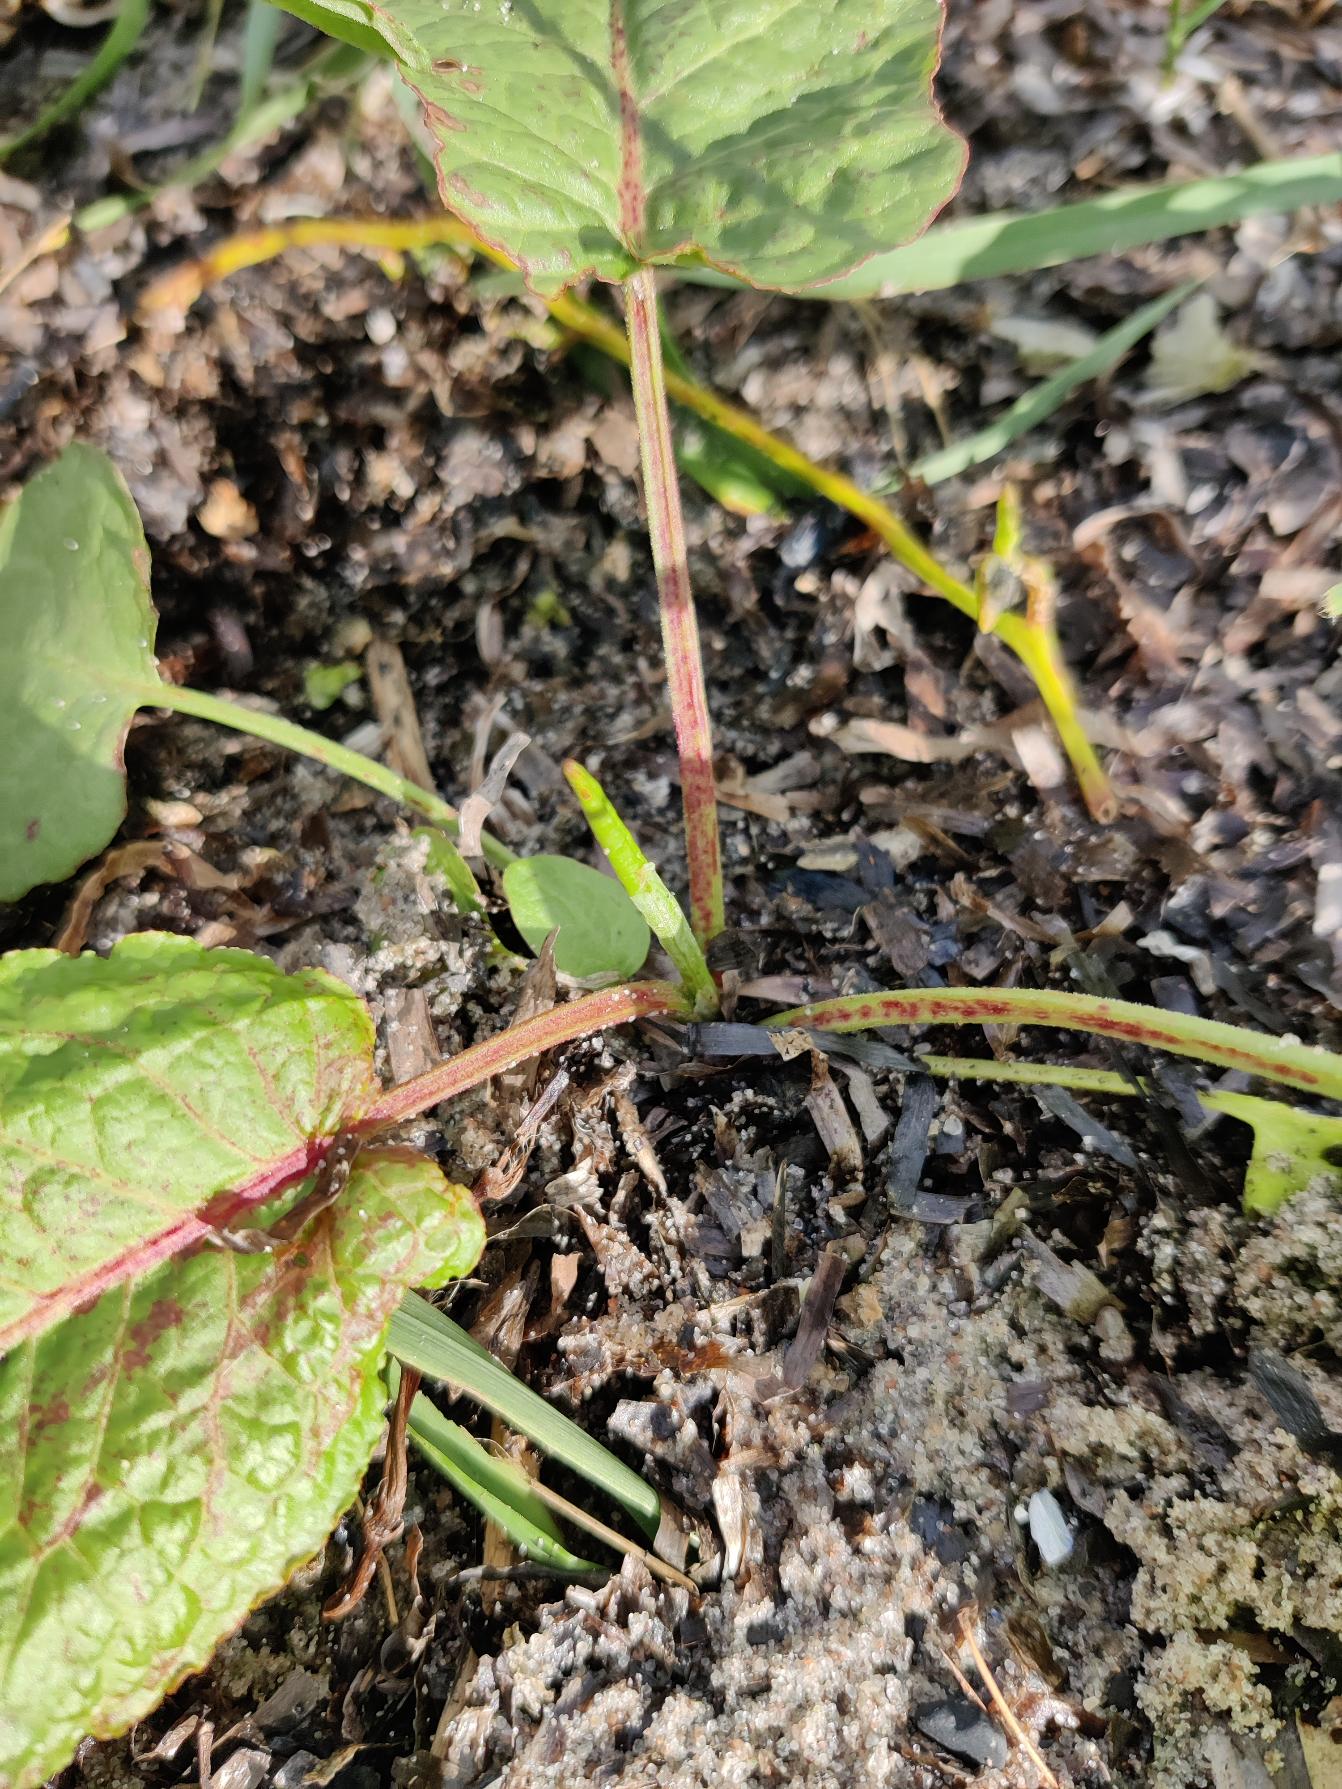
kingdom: Plantae
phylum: Tracheophyta
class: Magnoliopsida
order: Caryophyllales
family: Polygonaceae
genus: Rumex
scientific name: Rumex obtusifolius
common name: Butbladet skræppe
